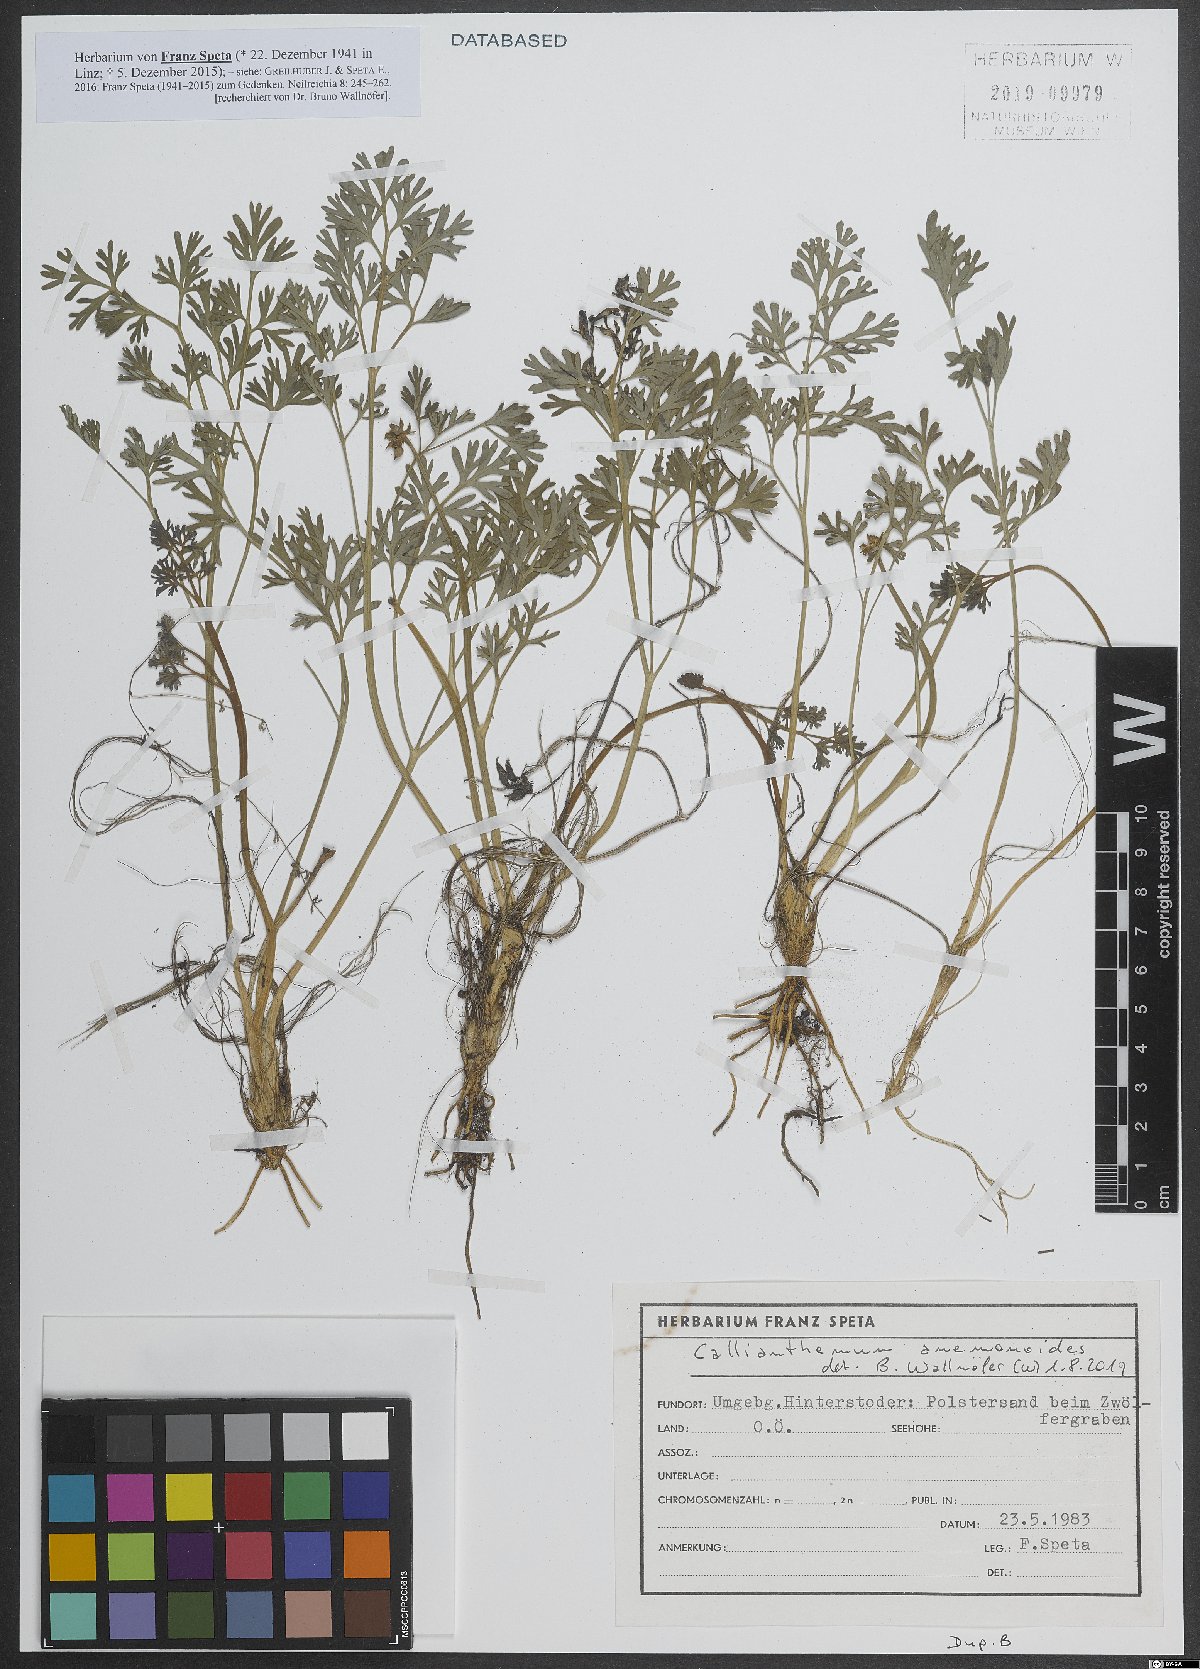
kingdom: Plantae
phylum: Tracheophyta
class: Magnoliopsida
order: Ranunculales
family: Ranunculaceae
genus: Callianthemum
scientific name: Callianthemum anemonoides
